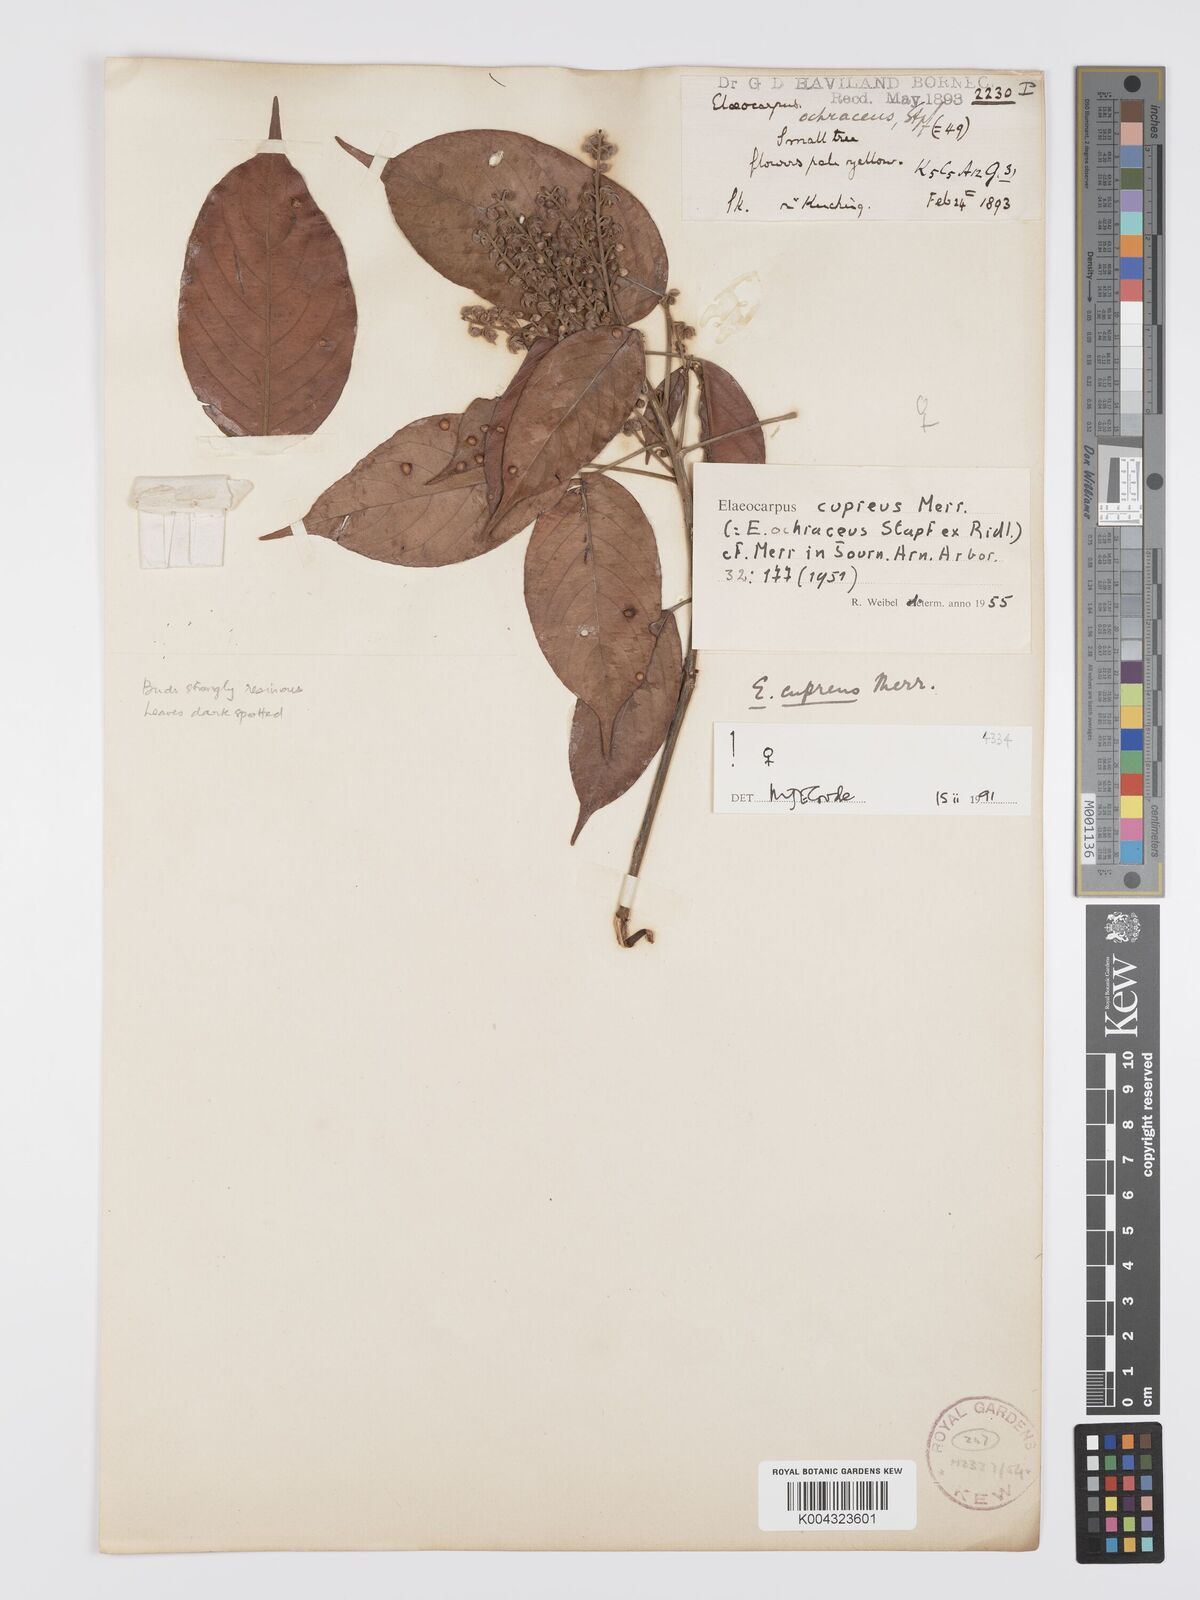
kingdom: Plantae
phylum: Tracheophyta
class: Magnoliopsida
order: Oxalidales
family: Elaeocarpaceae
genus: Elaeocarpus
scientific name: Elaeocarpus cupreus
